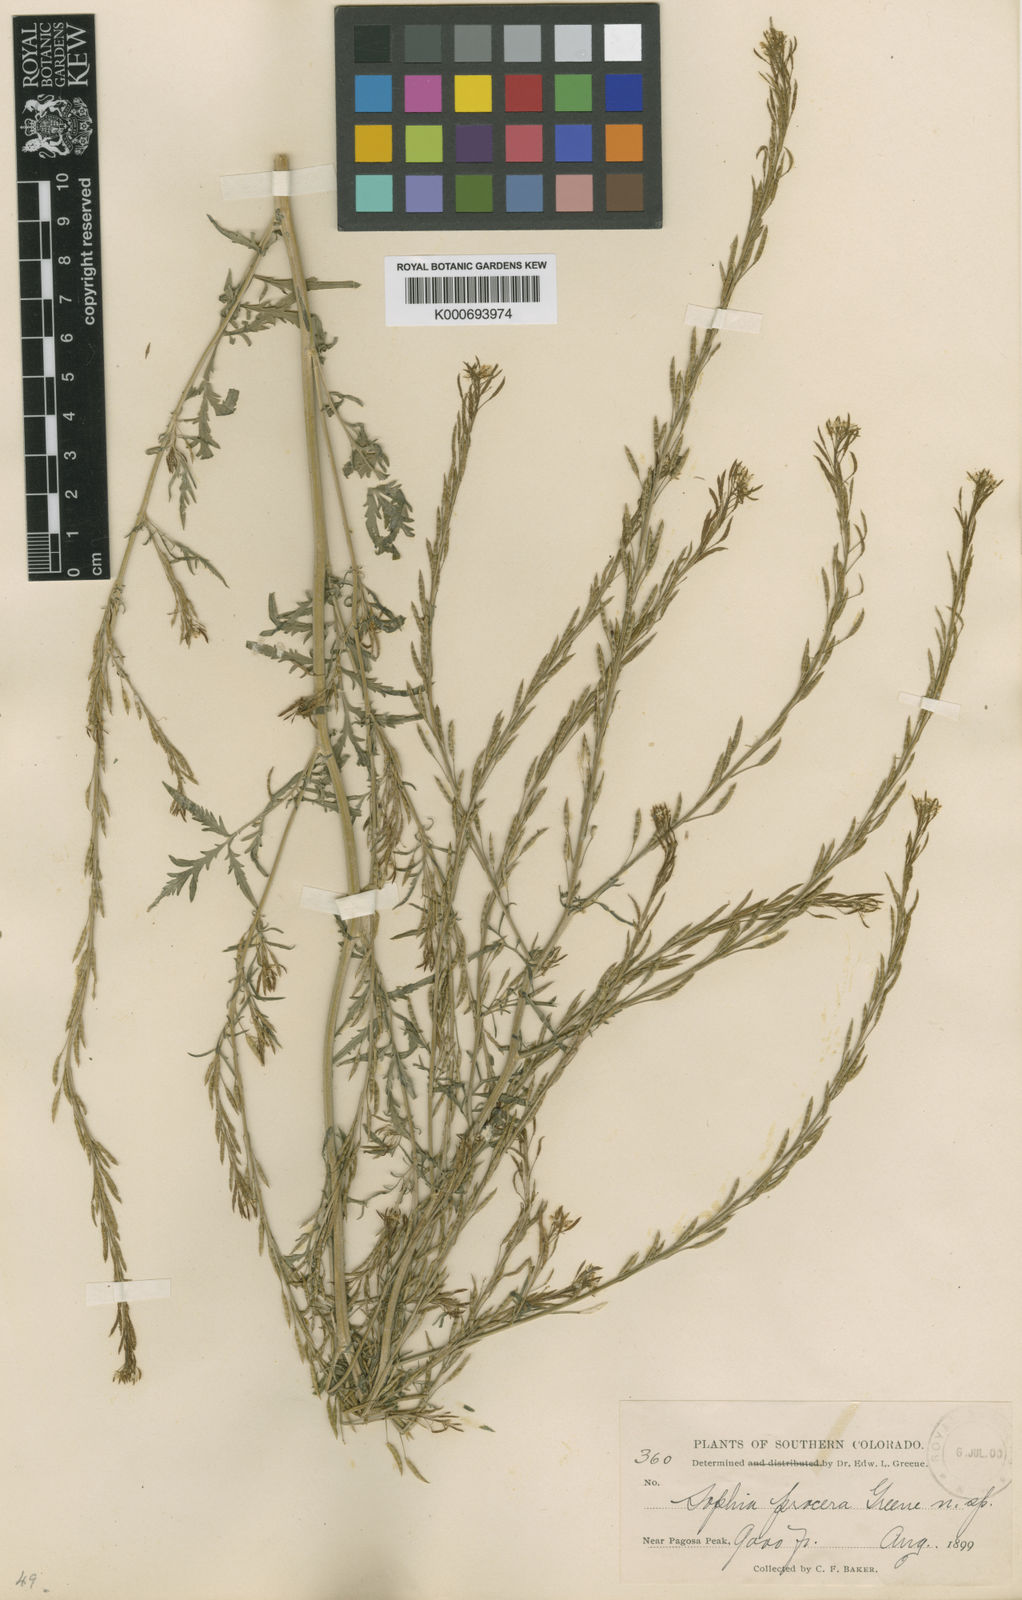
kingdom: Plantae
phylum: Tracheophyta
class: Magnoliopsida
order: Brassicales
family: Brassicaceae
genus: Descurainia
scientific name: Descurainia incana
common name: Gray tansy mustard
